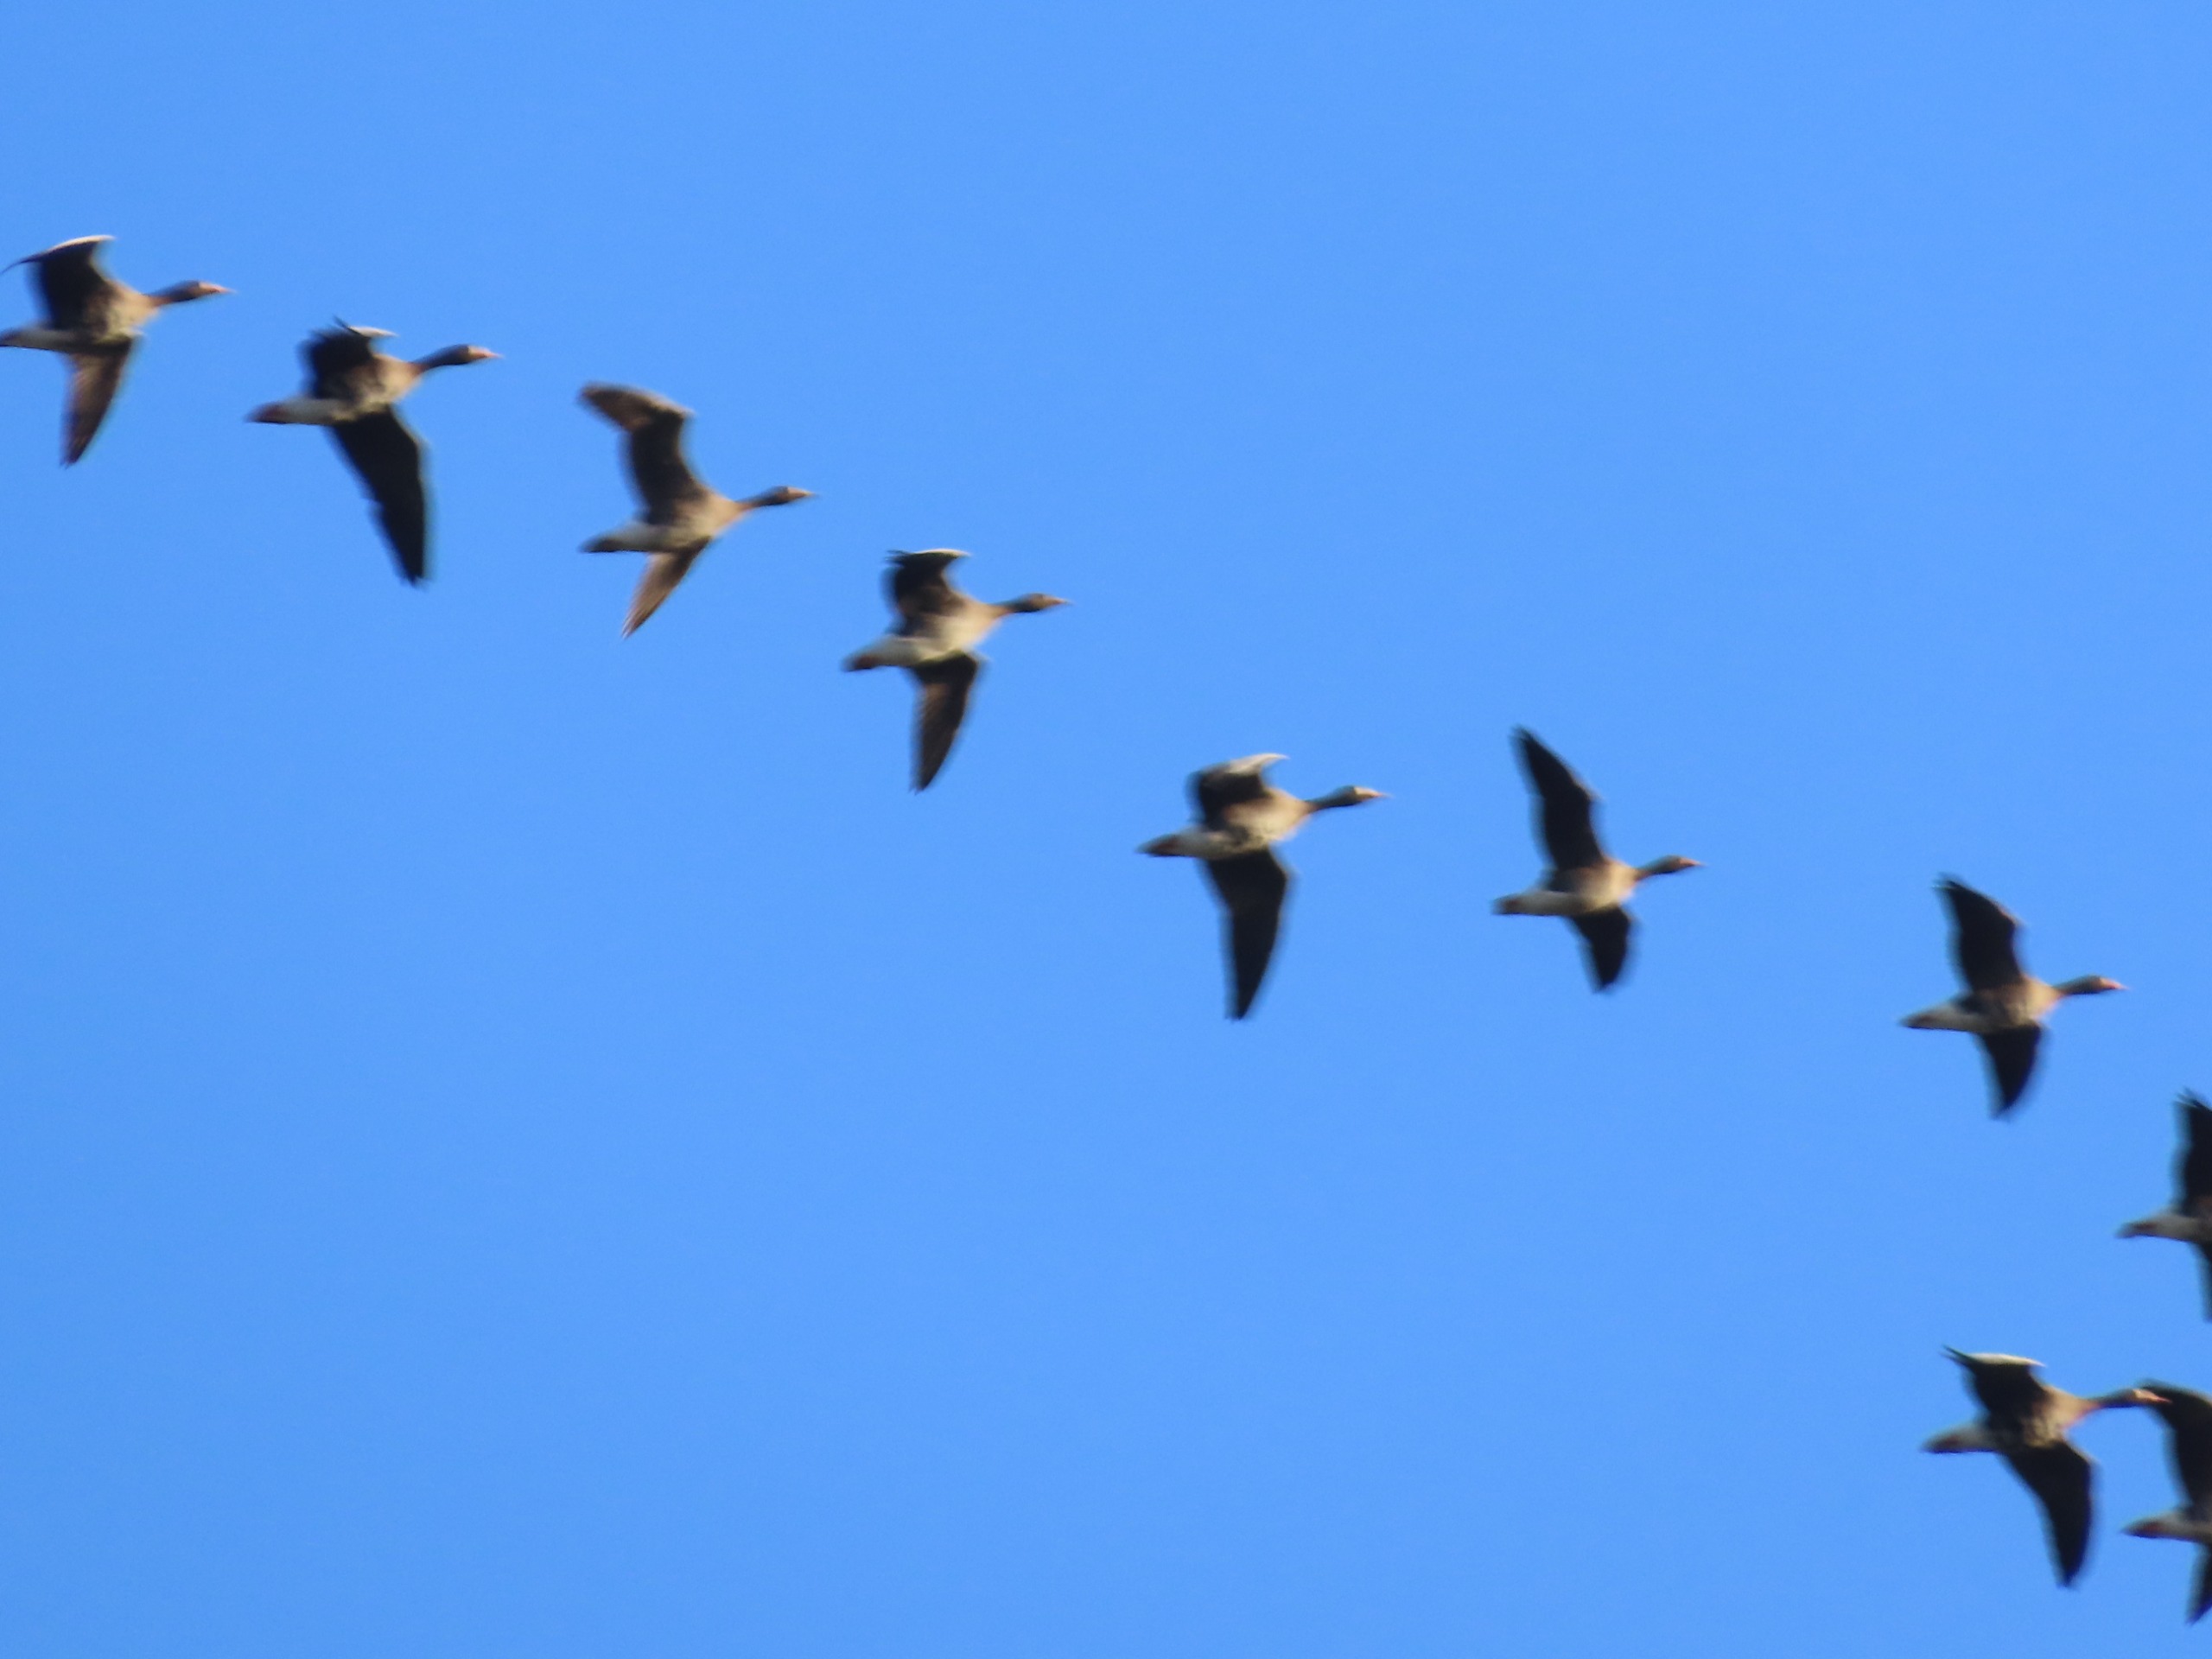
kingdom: Animalia
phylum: Chordata
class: Aves
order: Anseriformes
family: Anatidae
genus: Anser
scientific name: Anser anser
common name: Grågås
